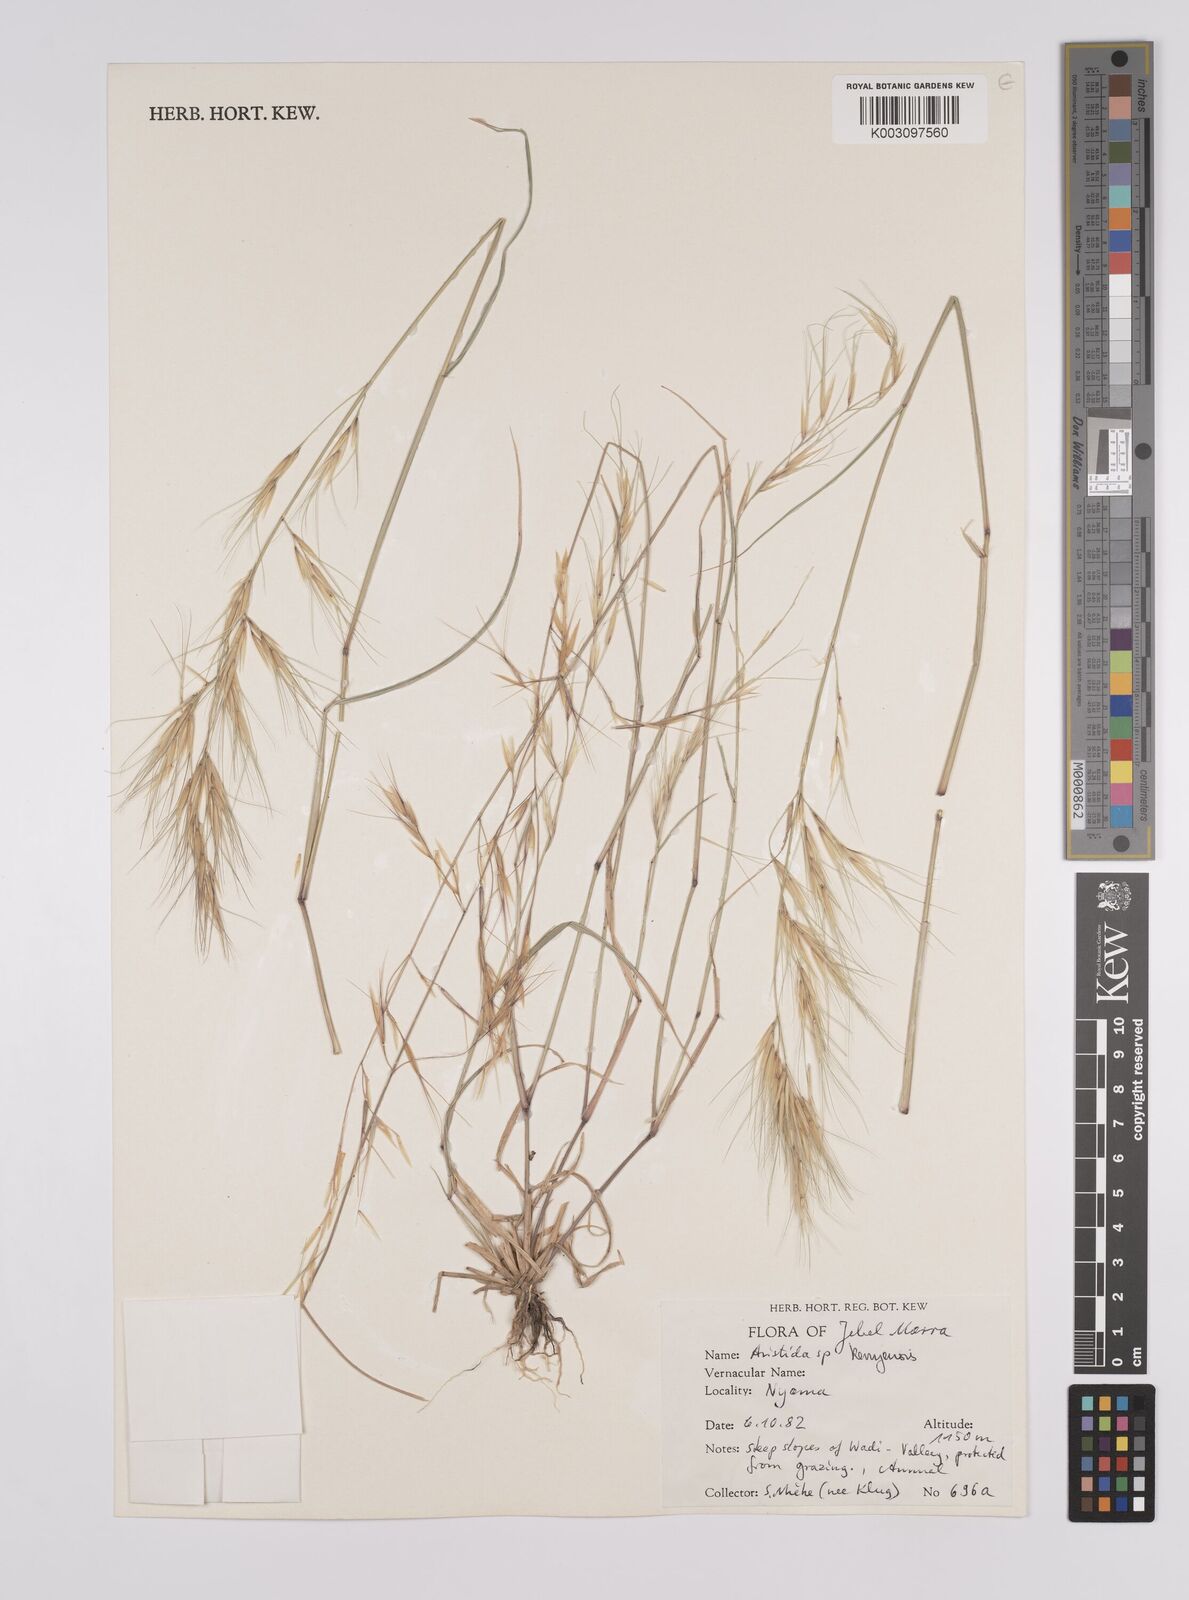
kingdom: Plantae
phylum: Tracheophyta
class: Liliopsida
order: Poales
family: Poaceae
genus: Aristida
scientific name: Aristida kenyensis
